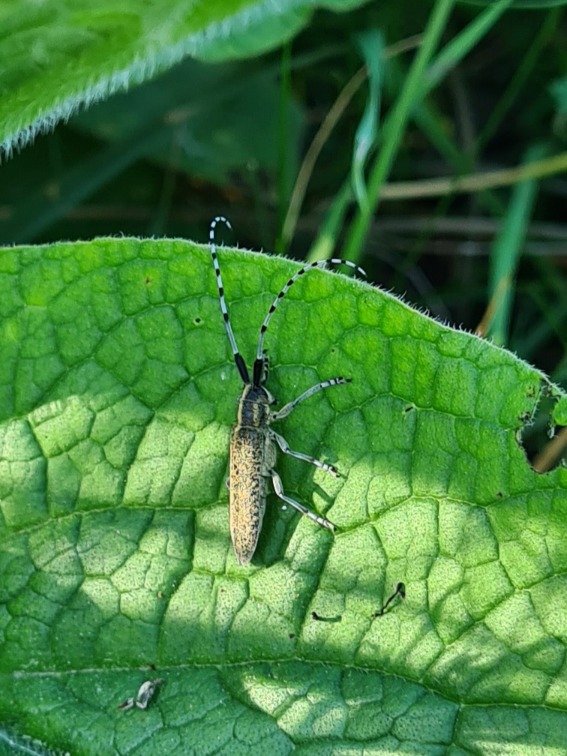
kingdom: Animalia
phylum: Arthropoda
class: Insecta
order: Coleoptera
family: Cerambycidae
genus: Agapanthia
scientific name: Agapanthia villosoviridescens
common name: Tidselbuk
